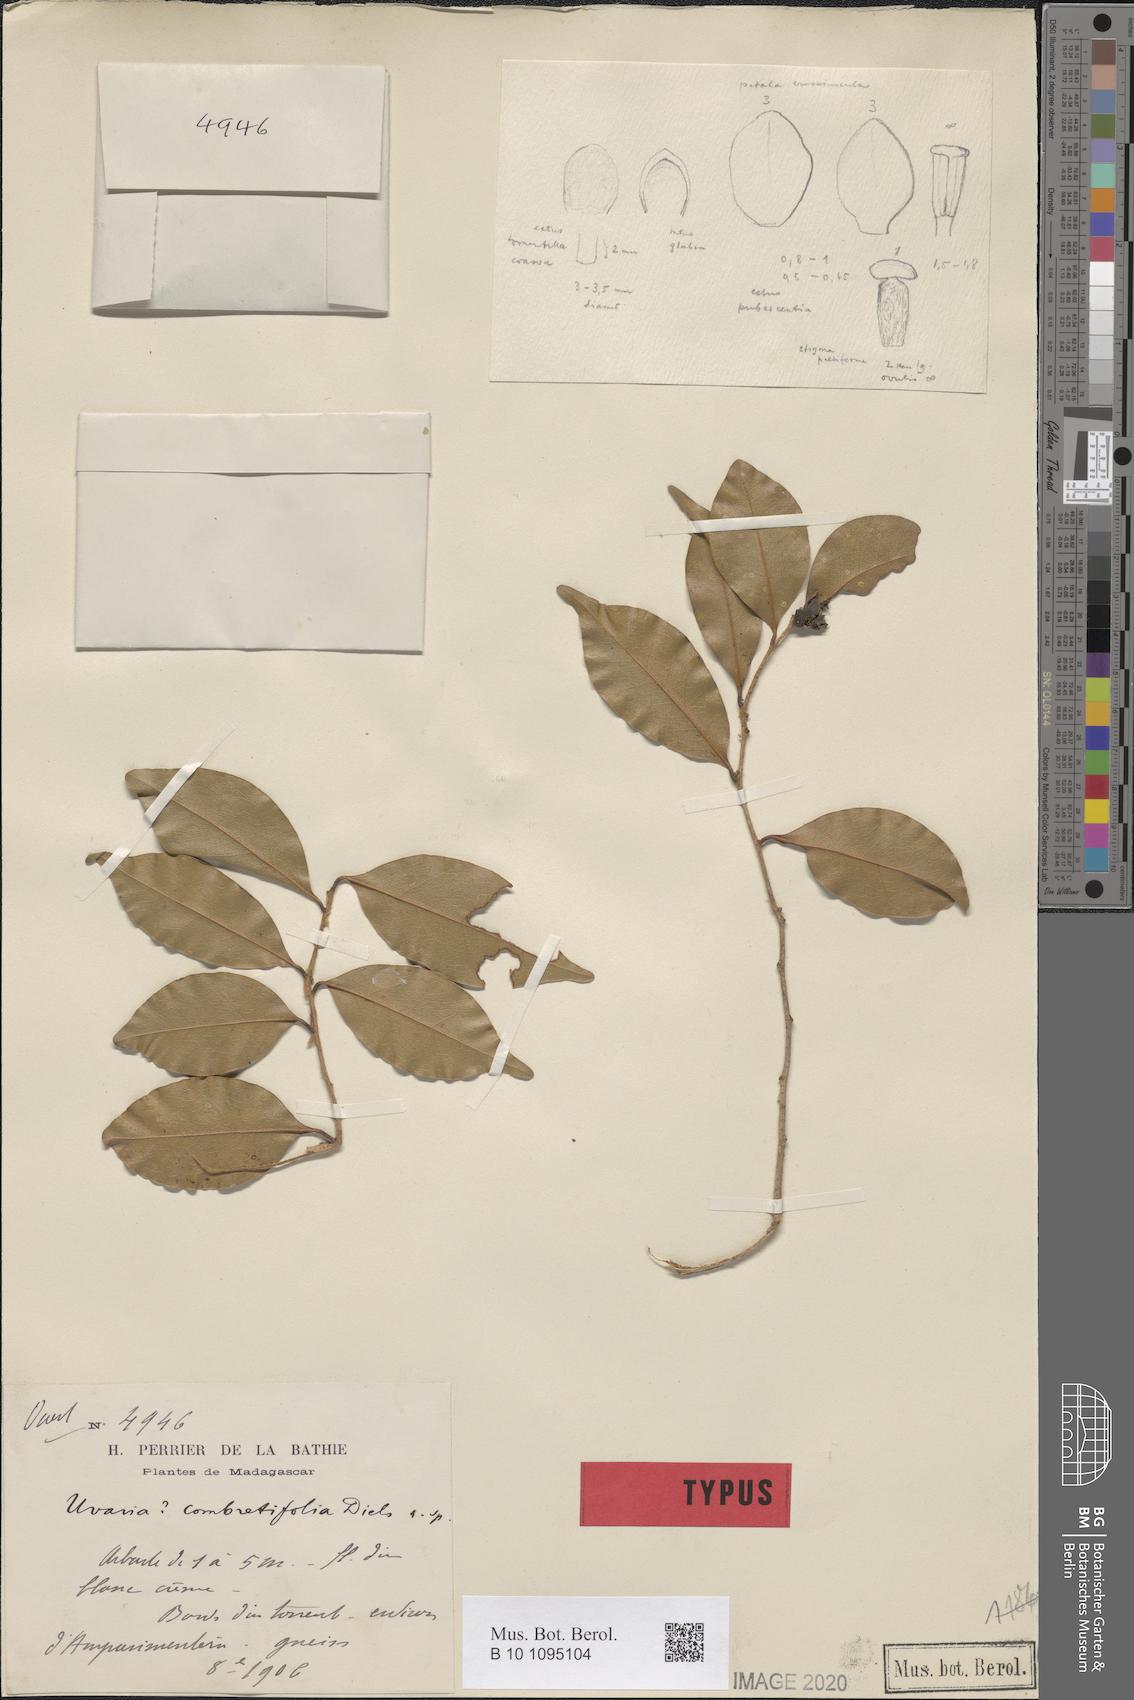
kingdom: Plantae
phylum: Tracheophyta
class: Magnoliopsida
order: Magnoliales
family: Annonaceae
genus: Uvaria
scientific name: Uvaria combretifolia
